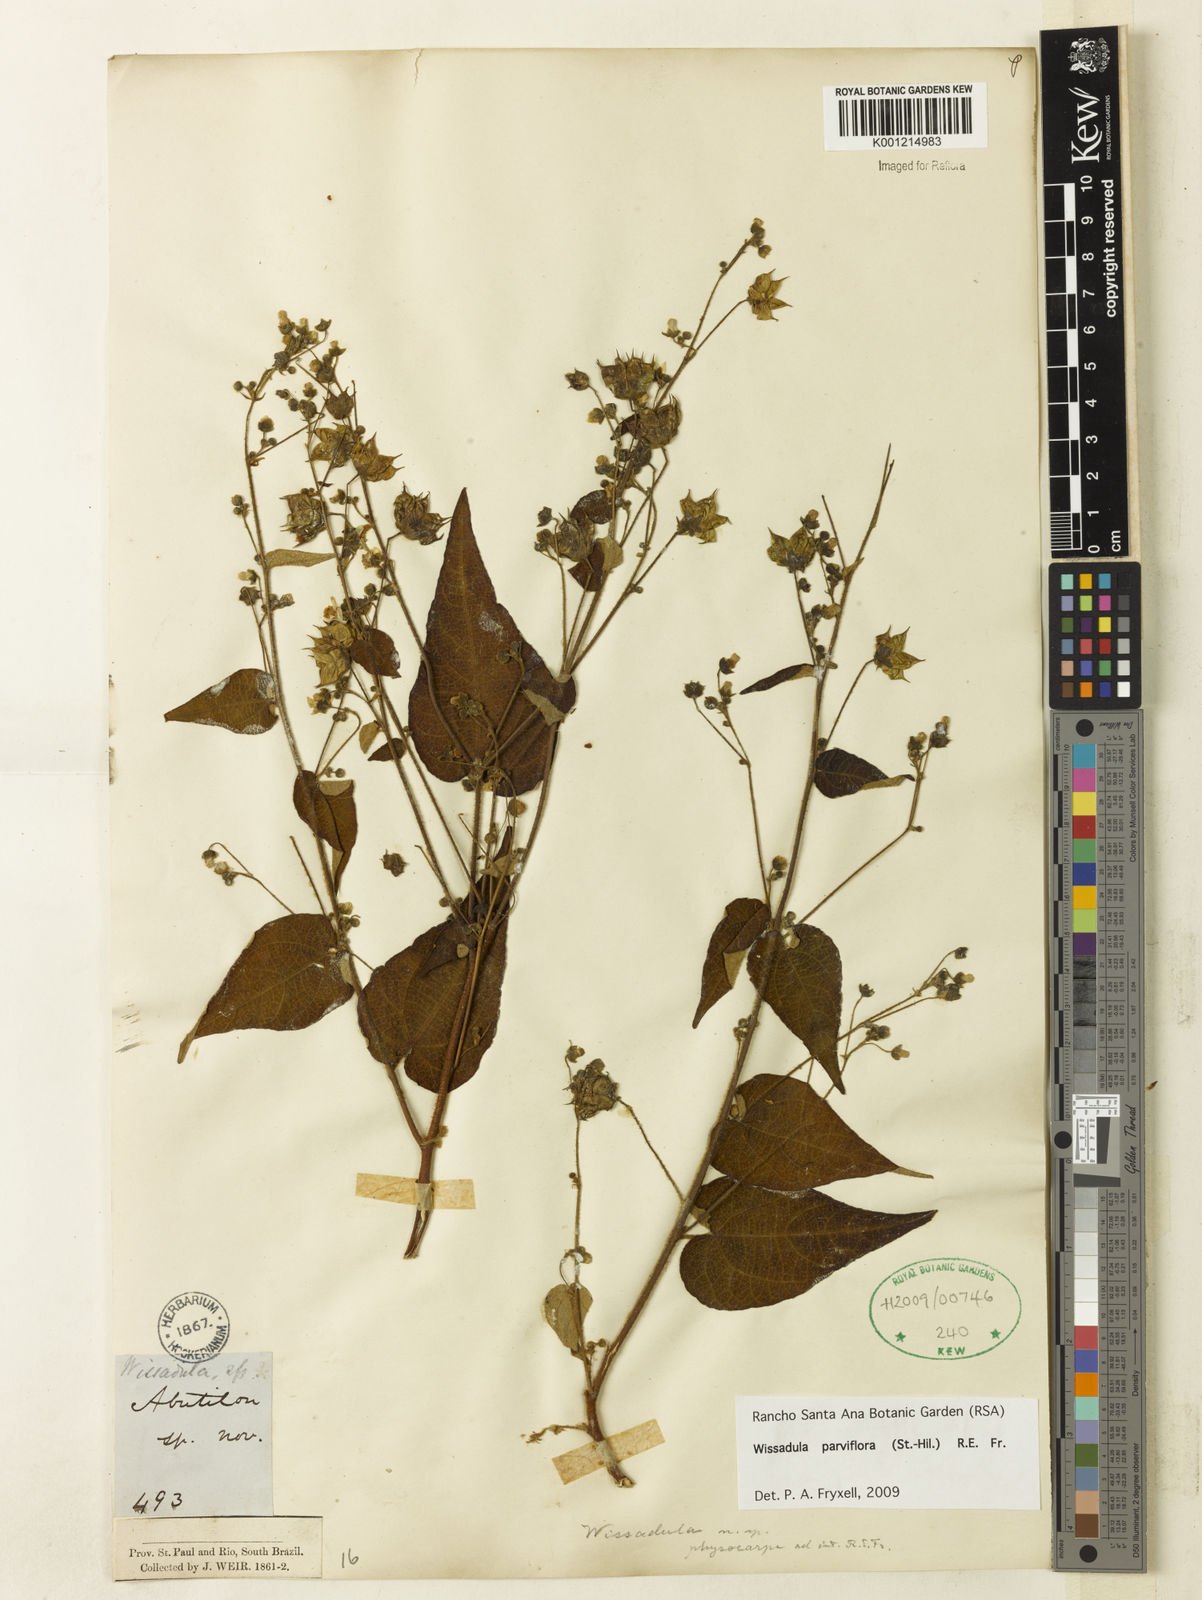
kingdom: Plantae
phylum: Tracheophyta
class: Magnoliopsida
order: Malvales
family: Malvaceae
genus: Wissadula
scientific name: Wissadula parviflora
